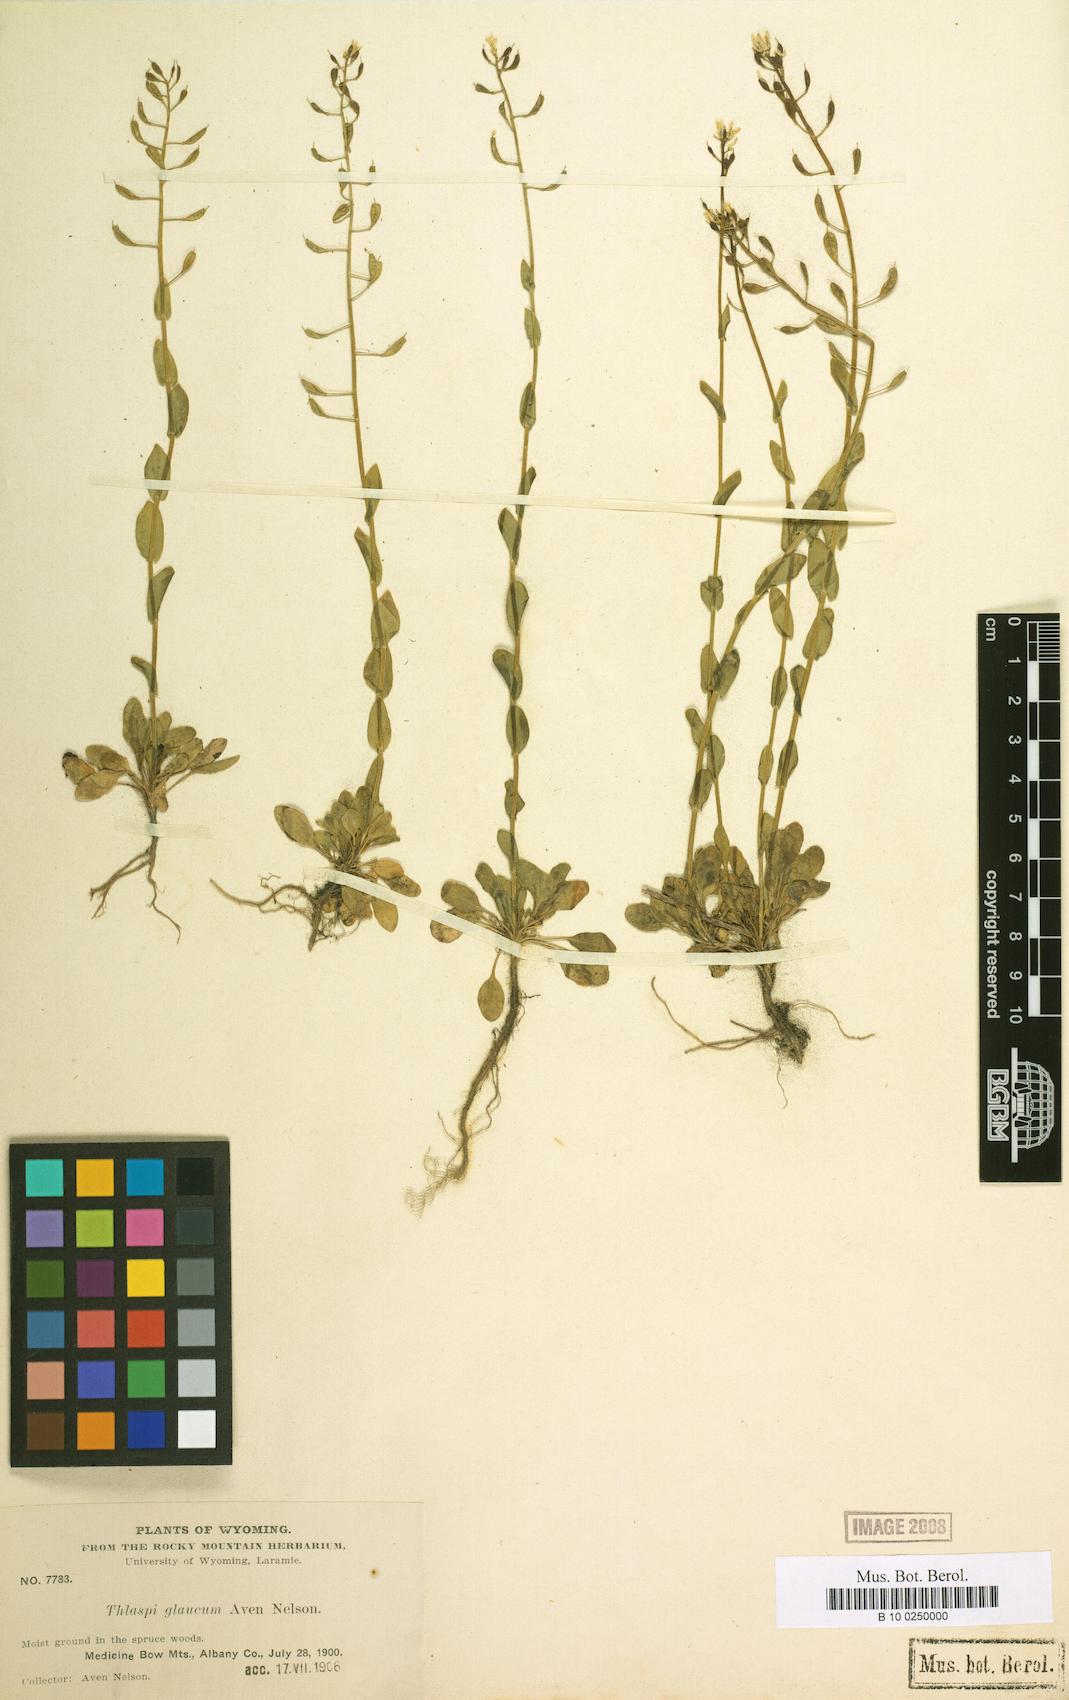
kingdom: Plantae
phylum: Tracheophyta
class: Magnoliopsida
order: Brassicales
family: Brassicaceae
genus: Noccaea
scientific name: Noccaea fendleri
